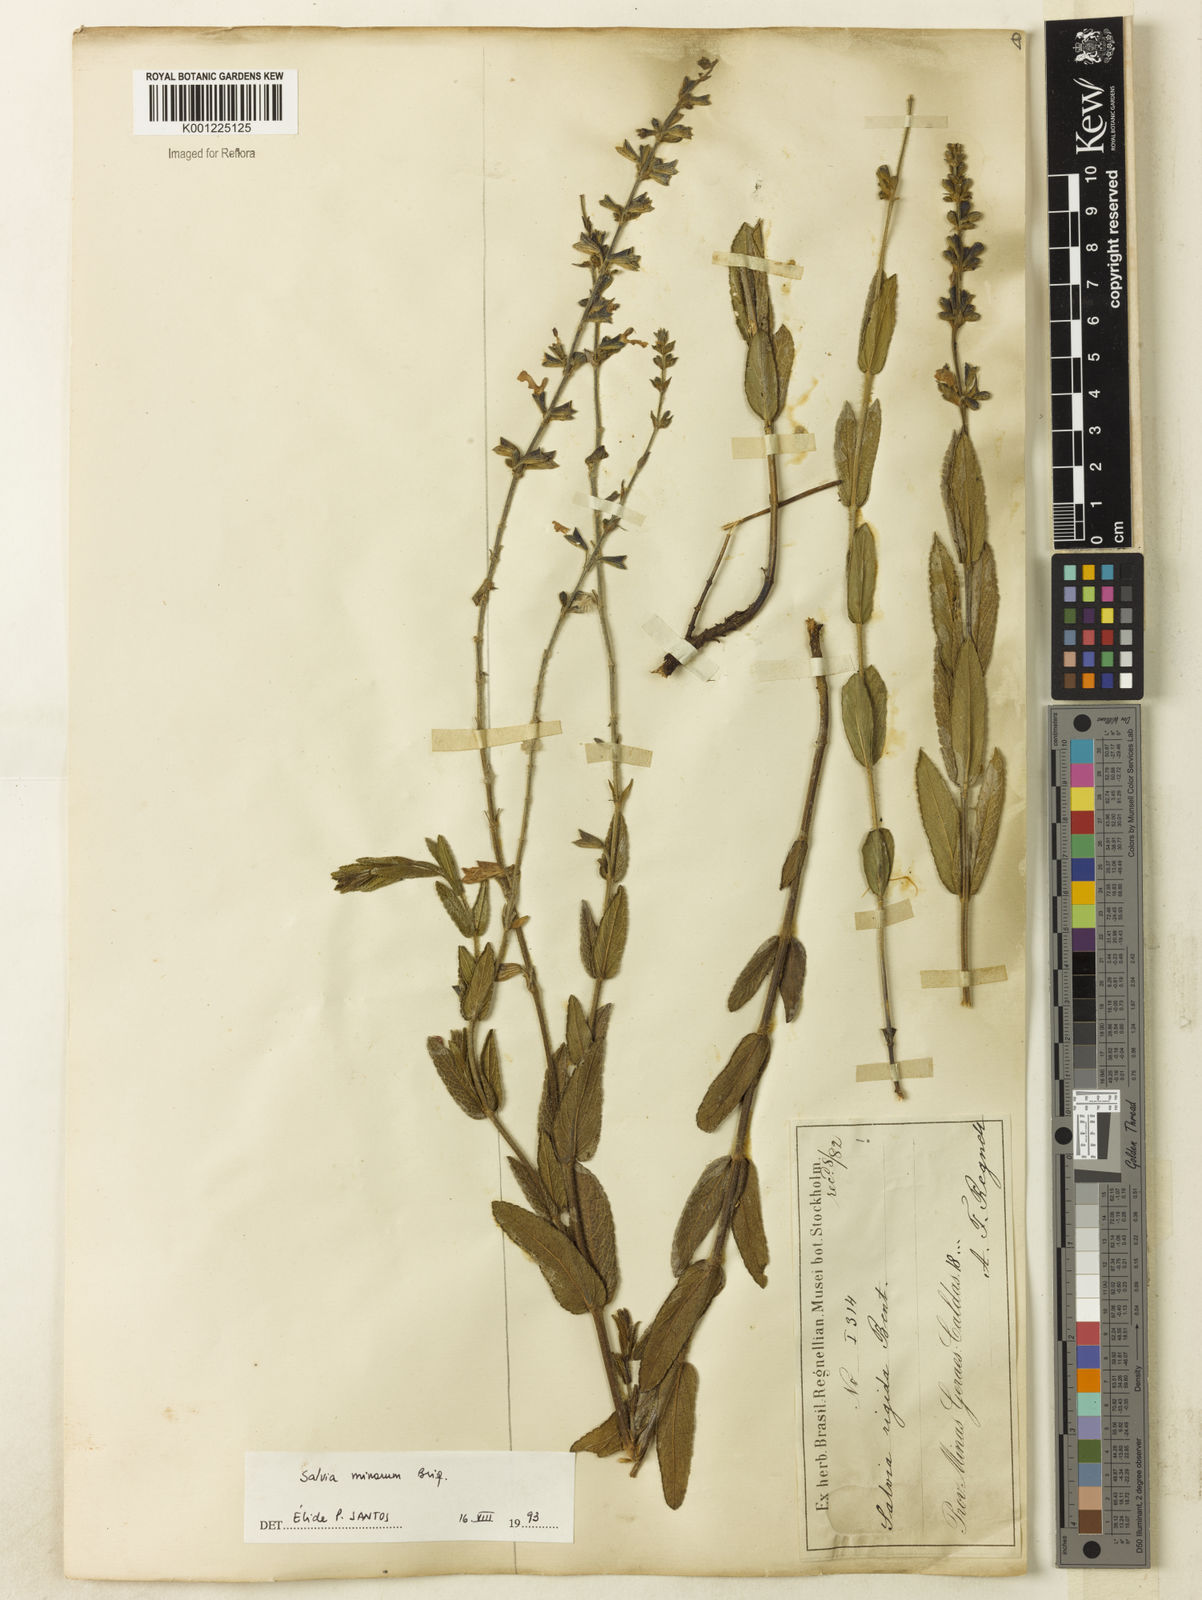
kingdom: Plantae
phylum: Tracheophyta
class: Magnoliopsida
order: Lamiales
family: Lamiaceae
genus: Salvia
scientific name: Salvia minarum
